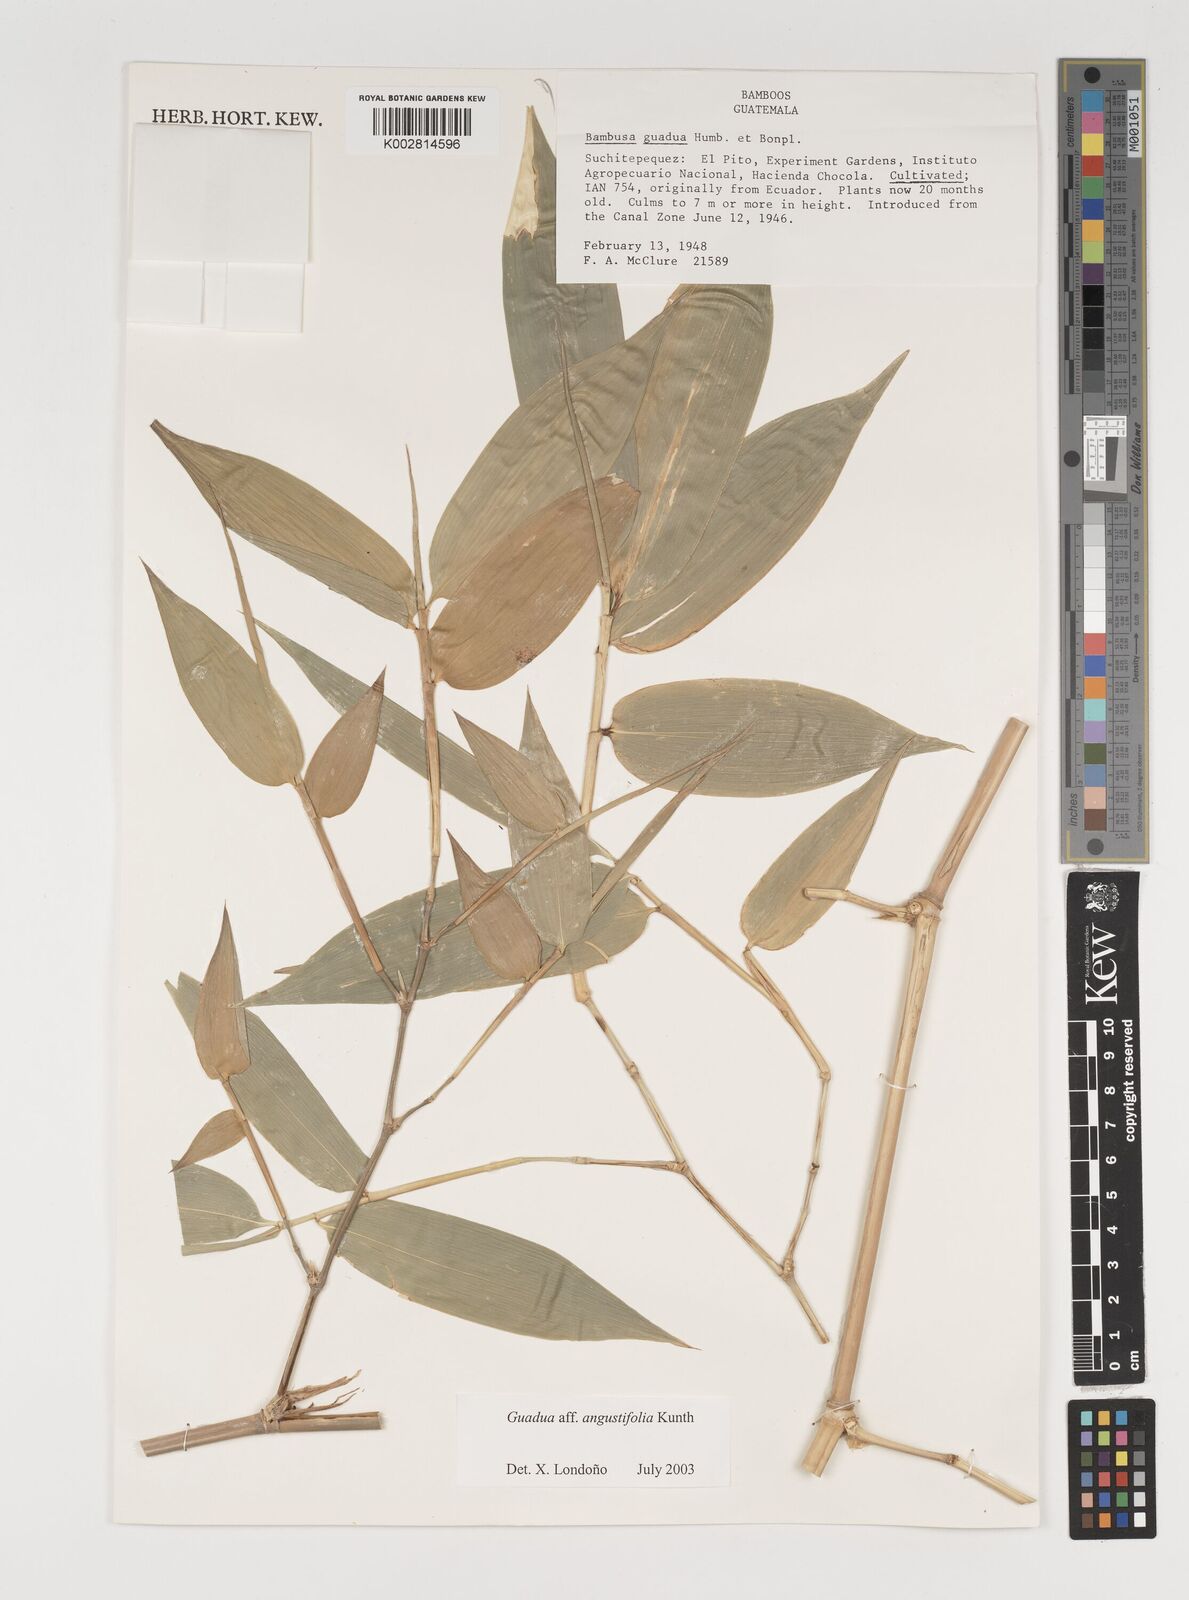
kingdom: Plantae
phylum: Tracheophyta
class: Liliopsida
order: Poales
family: Poaceae
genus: Guadua
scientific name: Guadua angustifolia
